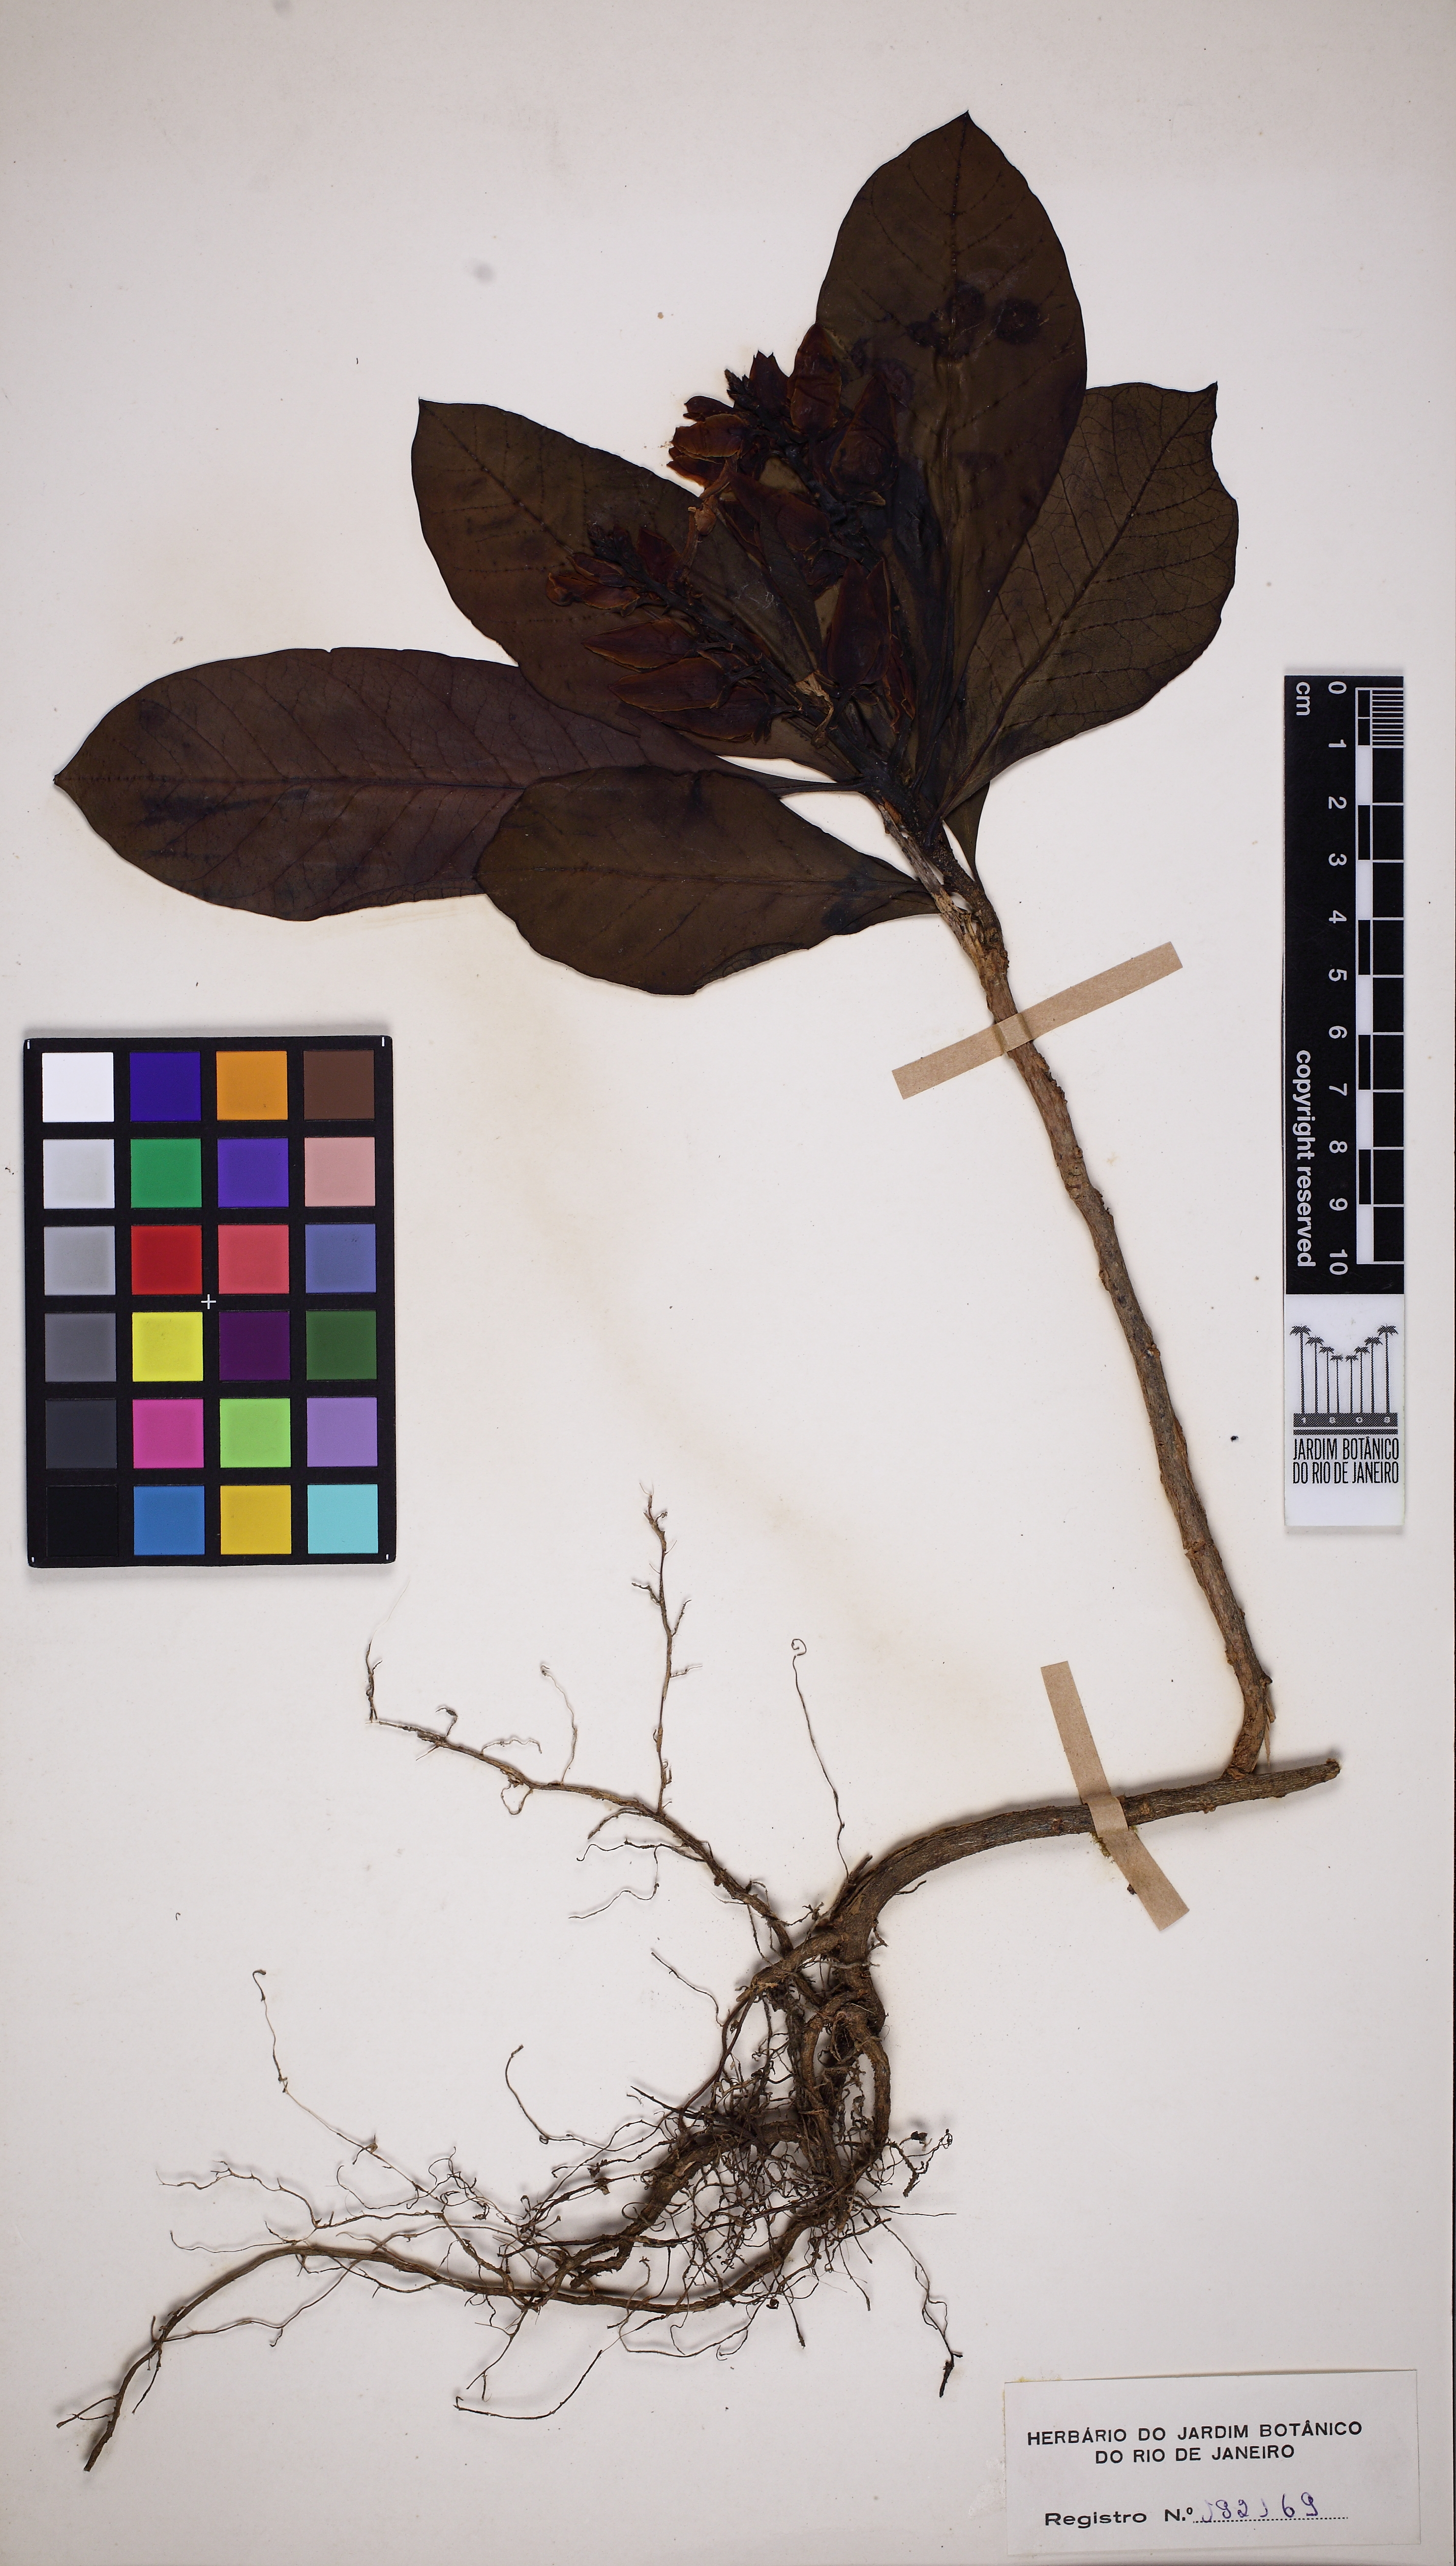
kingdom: Plantae
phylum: Tracheophyta
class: Magnoliopsida
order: Fabales
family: Polygalaceae
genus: Caamembeca
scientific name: Caamembeca grandifolia
